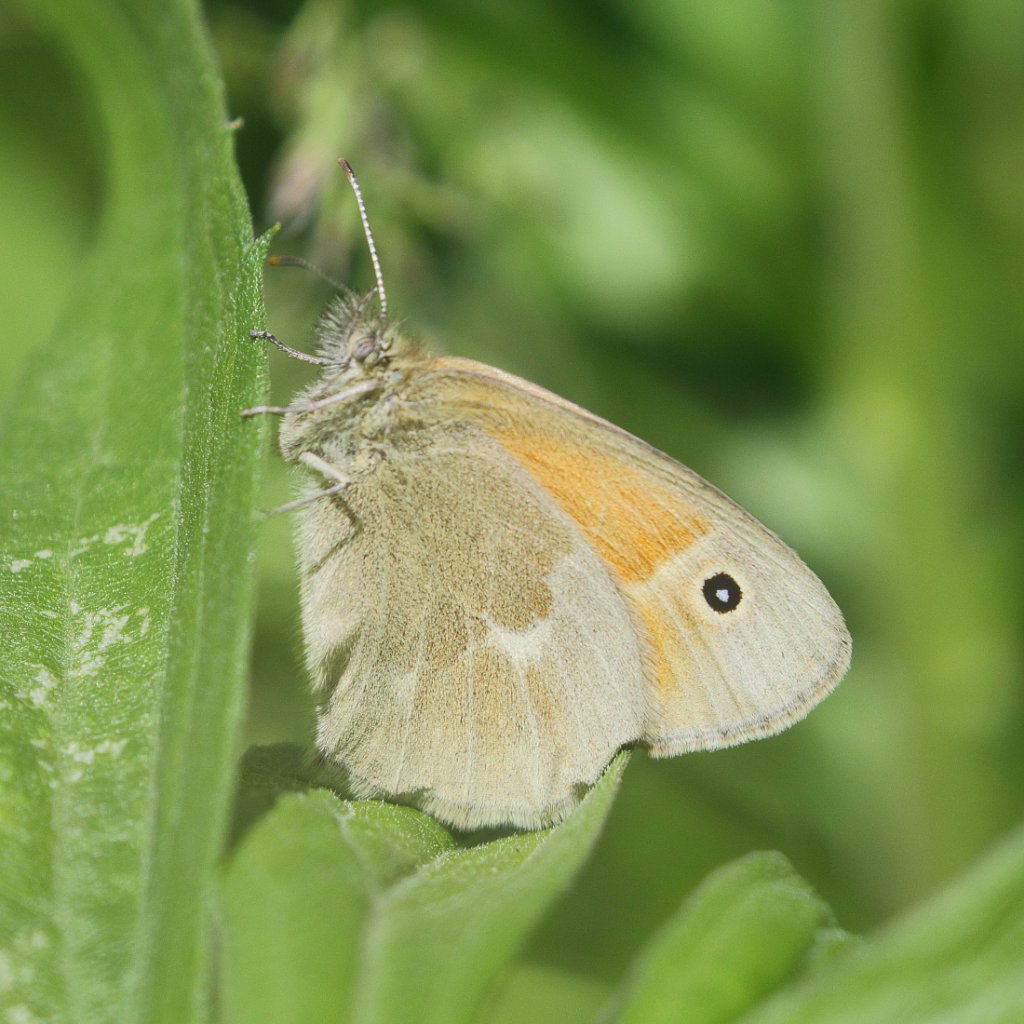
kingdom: Animalia
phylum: Arthropoda
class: Insecta
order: Lepidoptera
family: Nymphalidae
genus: Coenonympha
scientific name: Coenonympha tullia
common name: Large Heath
